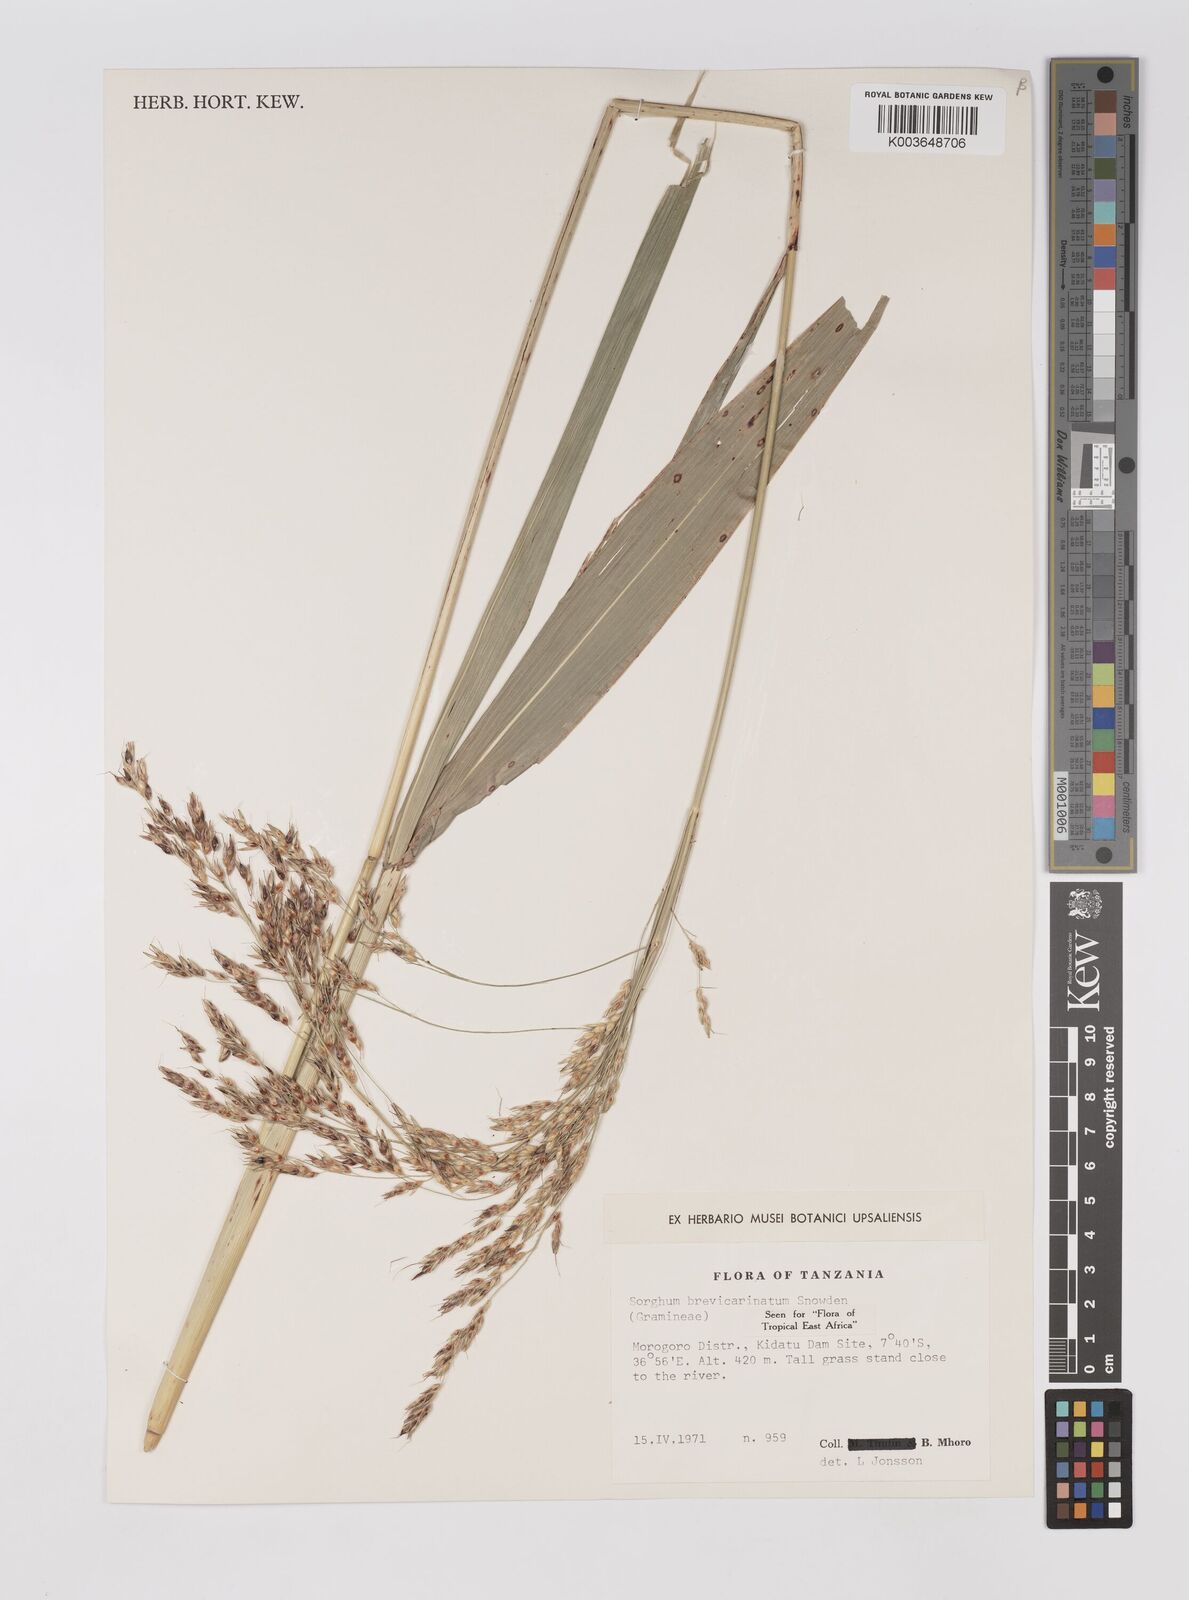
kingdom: Plantae
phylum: Tracheophyta
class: Liliopsida
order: Poales
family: Poaceae
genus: Sorghum
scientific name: Sorghum arundinaceum
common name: Sorghum
